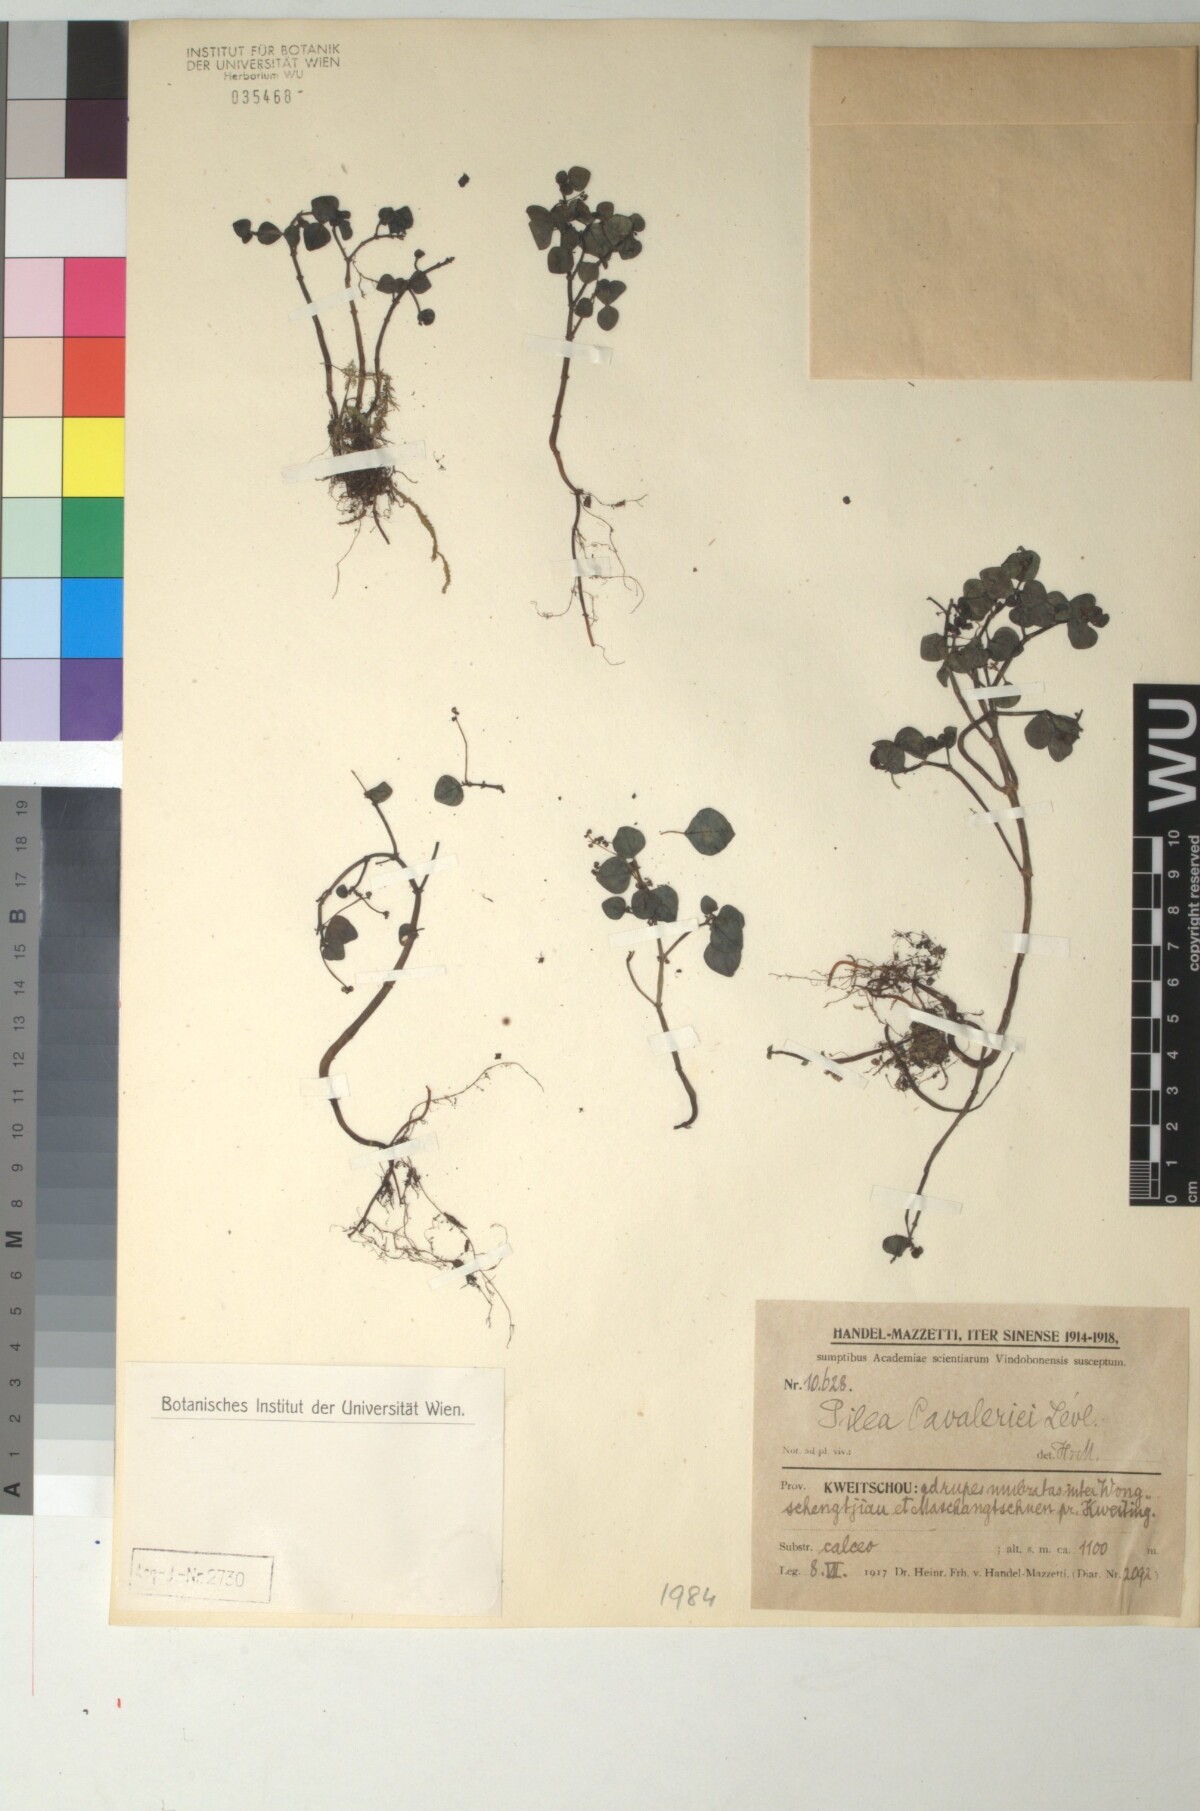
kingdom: Plantae
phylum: Tracheophyta
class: Magnoliopsida
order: Rosales
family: Urticaceae
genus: Pilea
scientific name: Pilea cavaleriei
